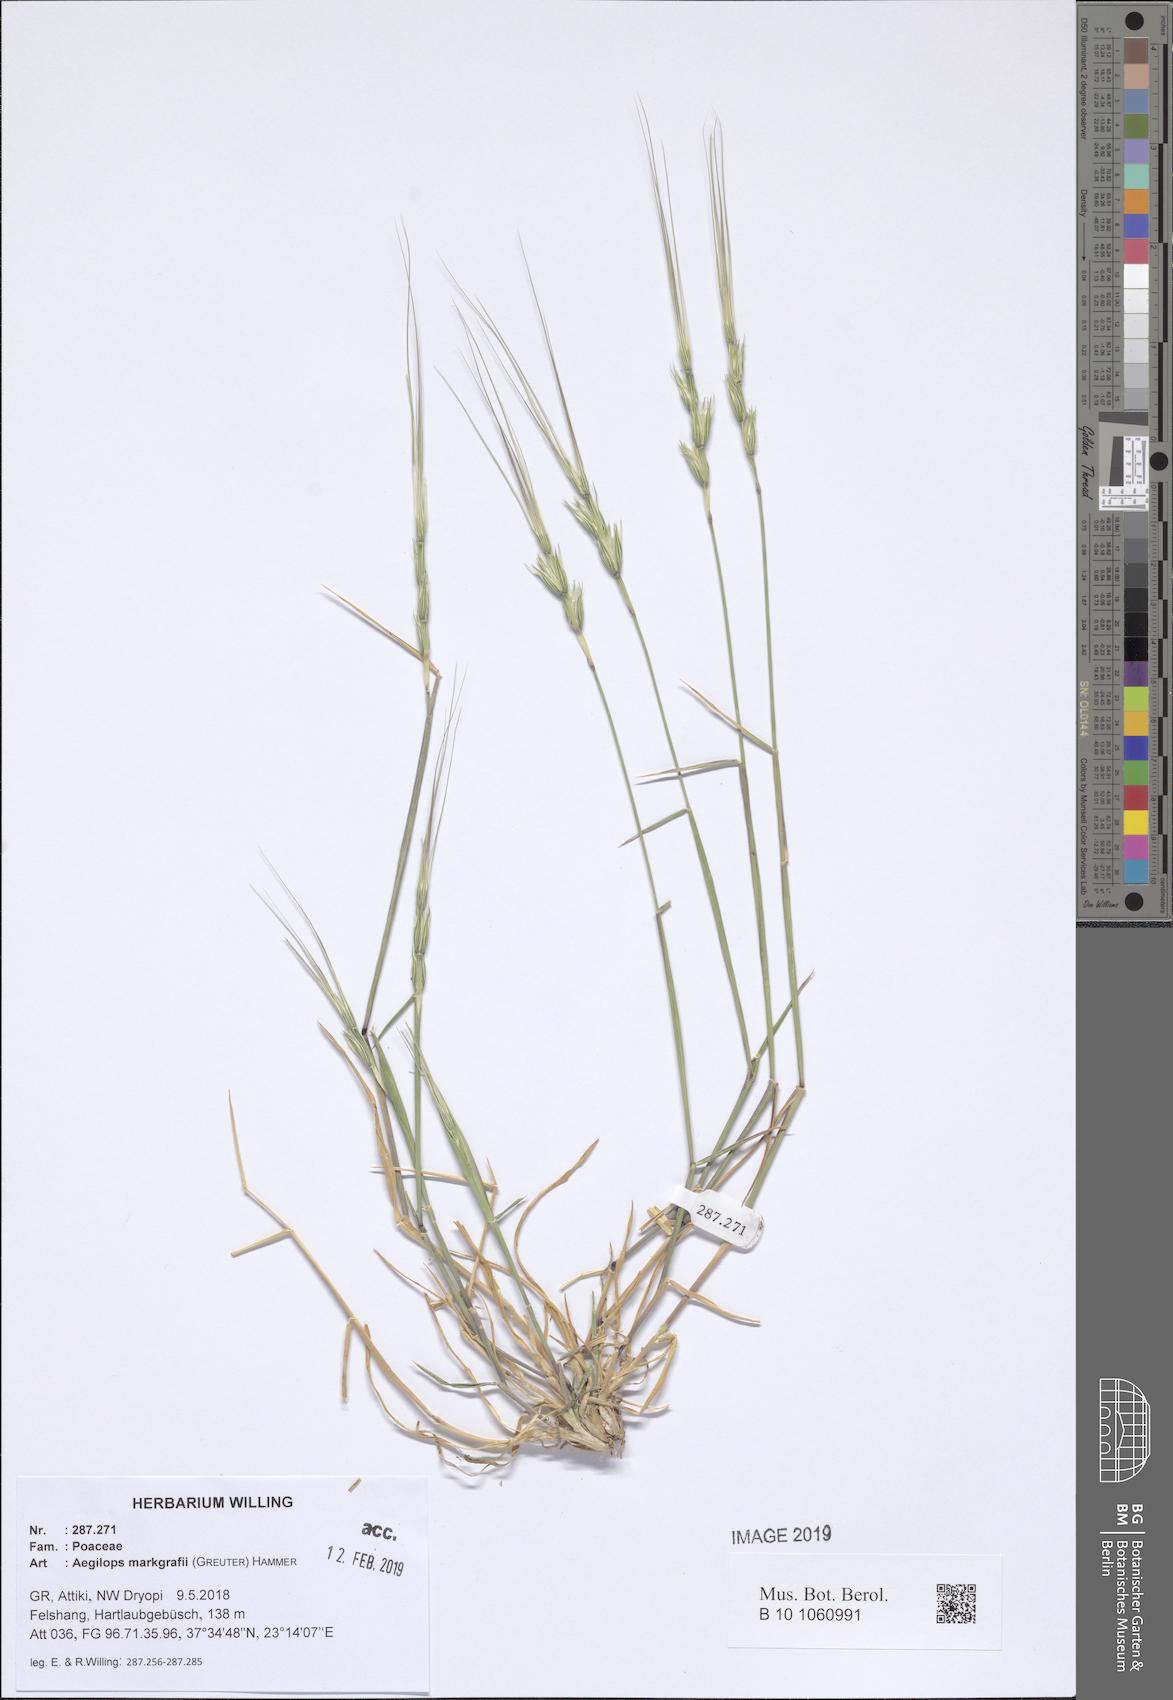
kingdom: Plantae
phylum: Tracheophyta
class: Liliopsida
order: Poales
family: Poaceae
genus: Aegilops
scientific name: Aegilops caudata
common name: Cretan hard-grass
